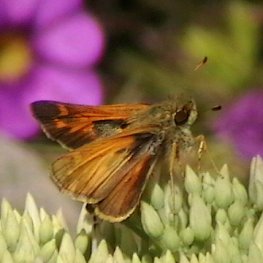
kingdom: Animalia
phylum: Arthropoda
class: Insecta
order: Lepidoptera
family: Hesperiidae
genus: Atalopedes
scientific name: Atalopedes campestris
